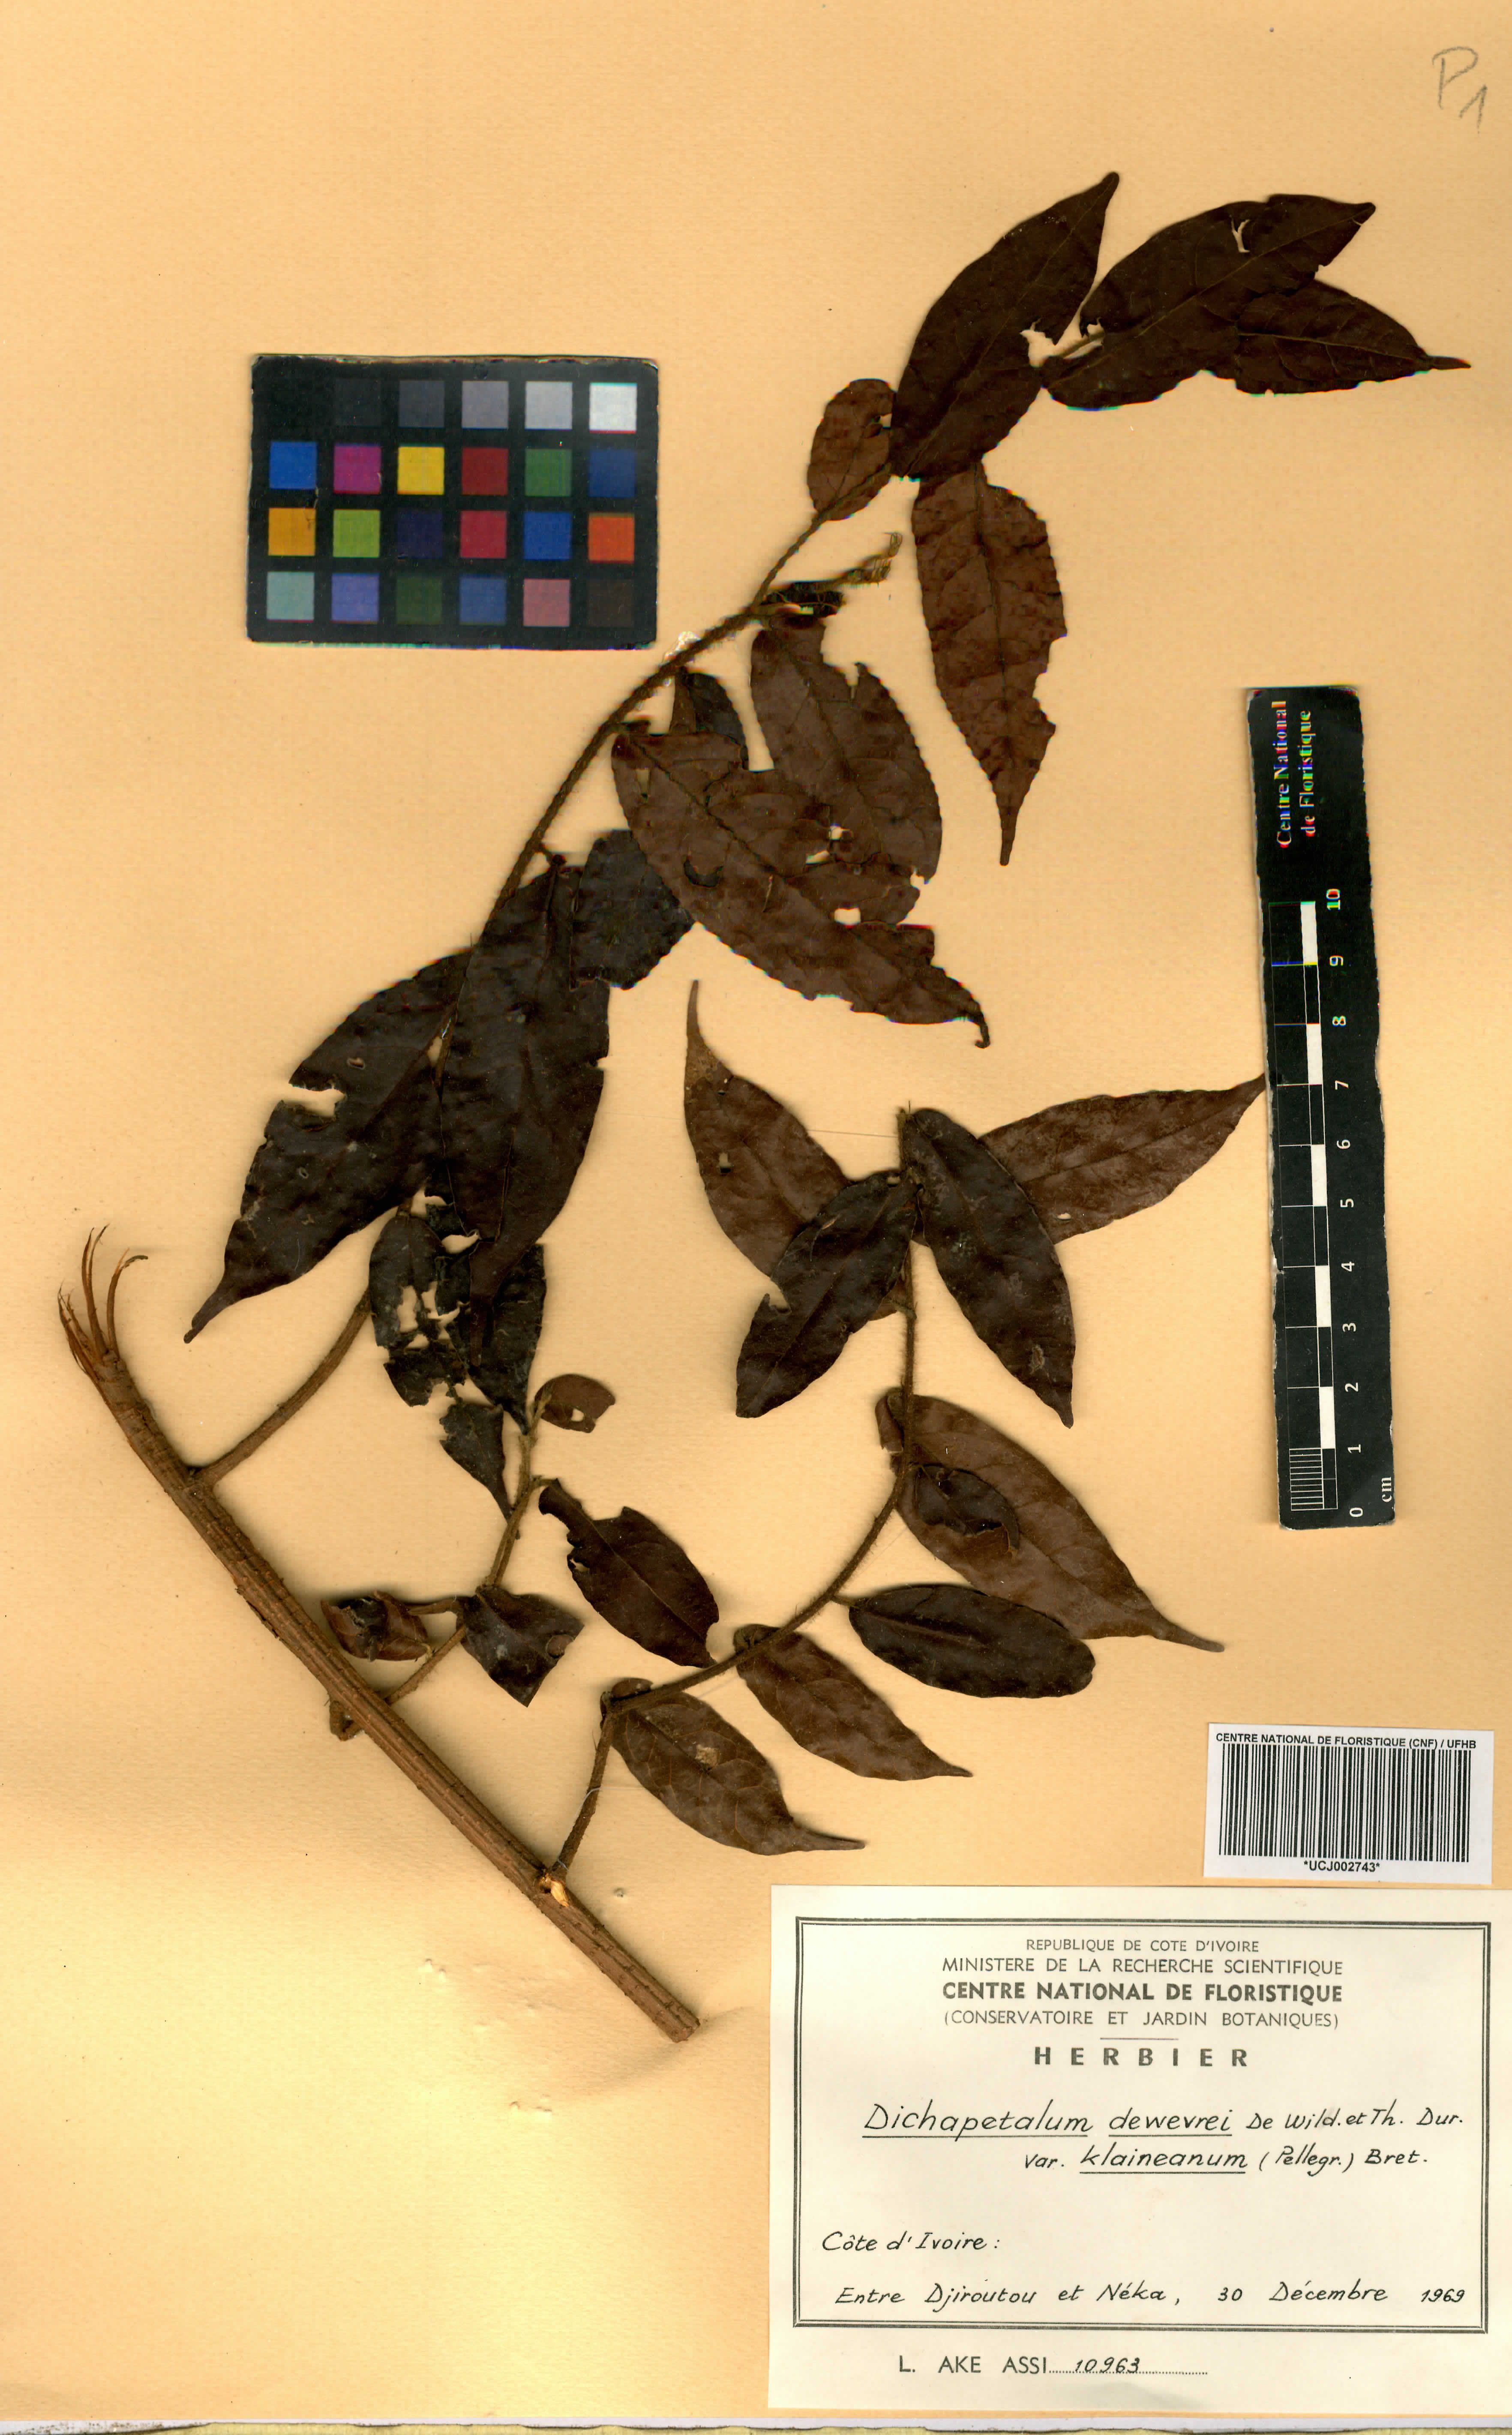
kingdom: Plantae
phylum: Tracheophyta
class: Magnoliopsida
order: Malpighiales
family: Dichapetalaceae
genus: Dichapetalum
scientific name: Dichapetalum dewevrei
